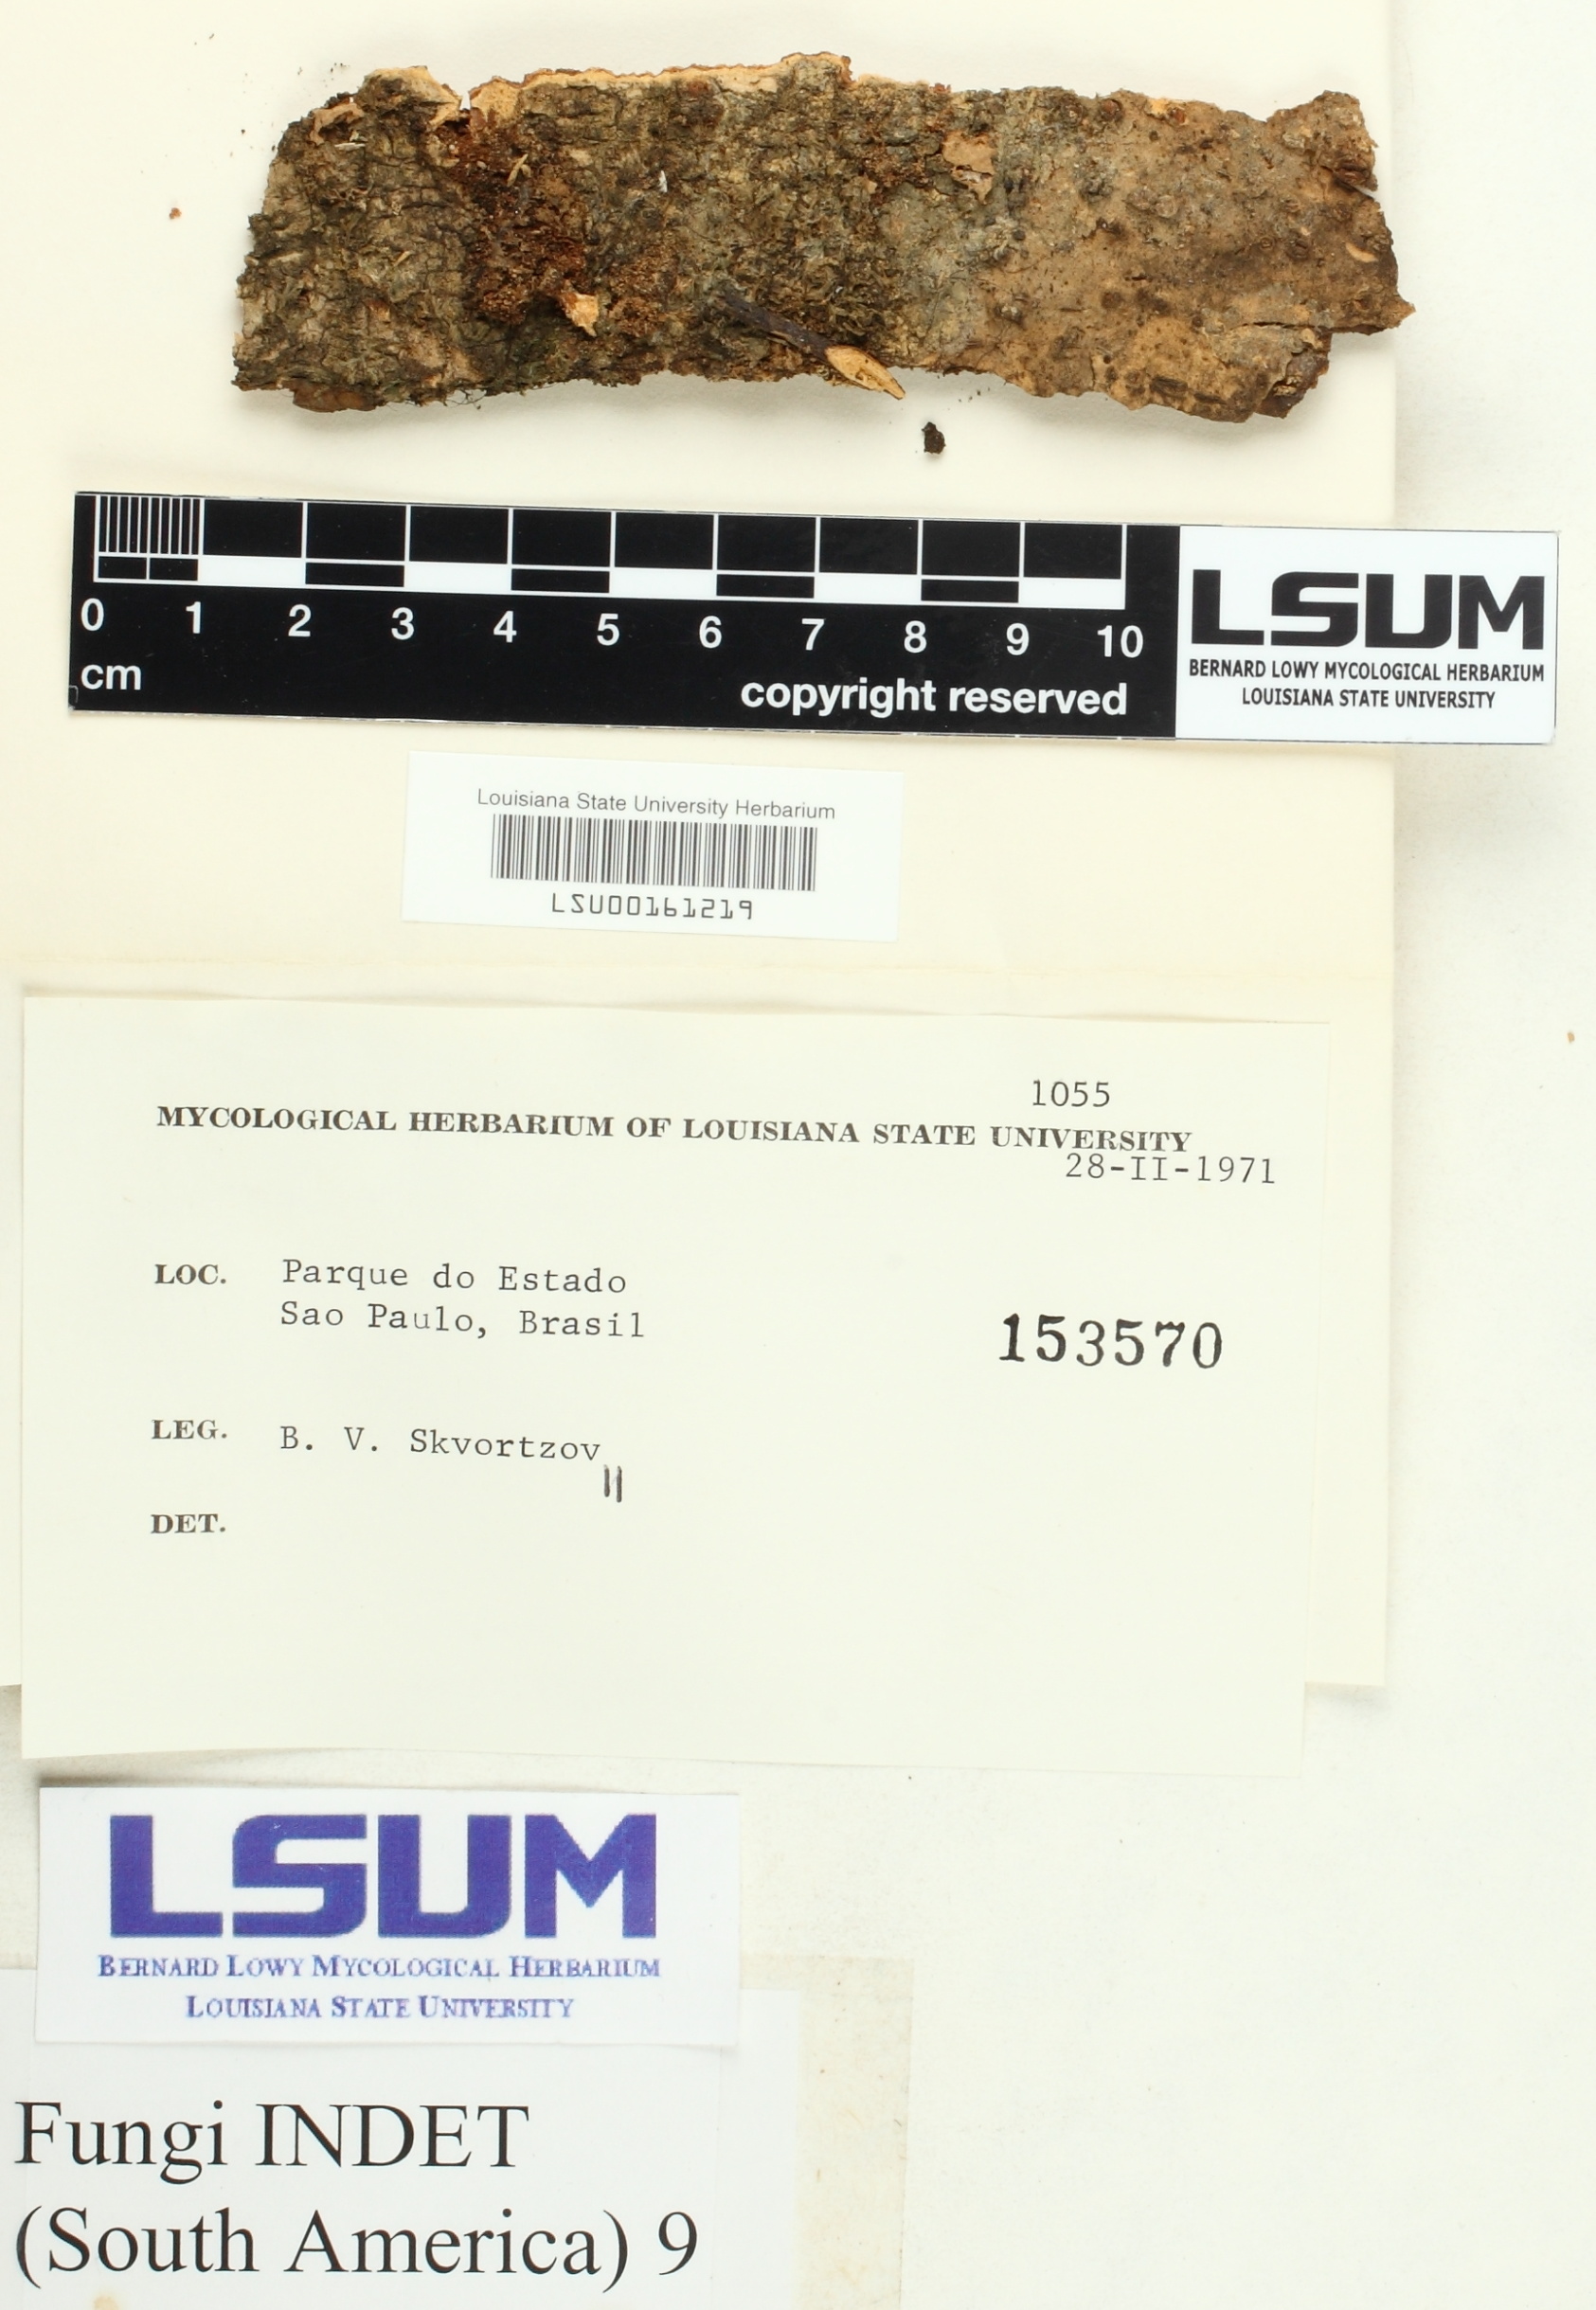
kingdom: Fungi
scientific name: Fungi
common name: Fungi
